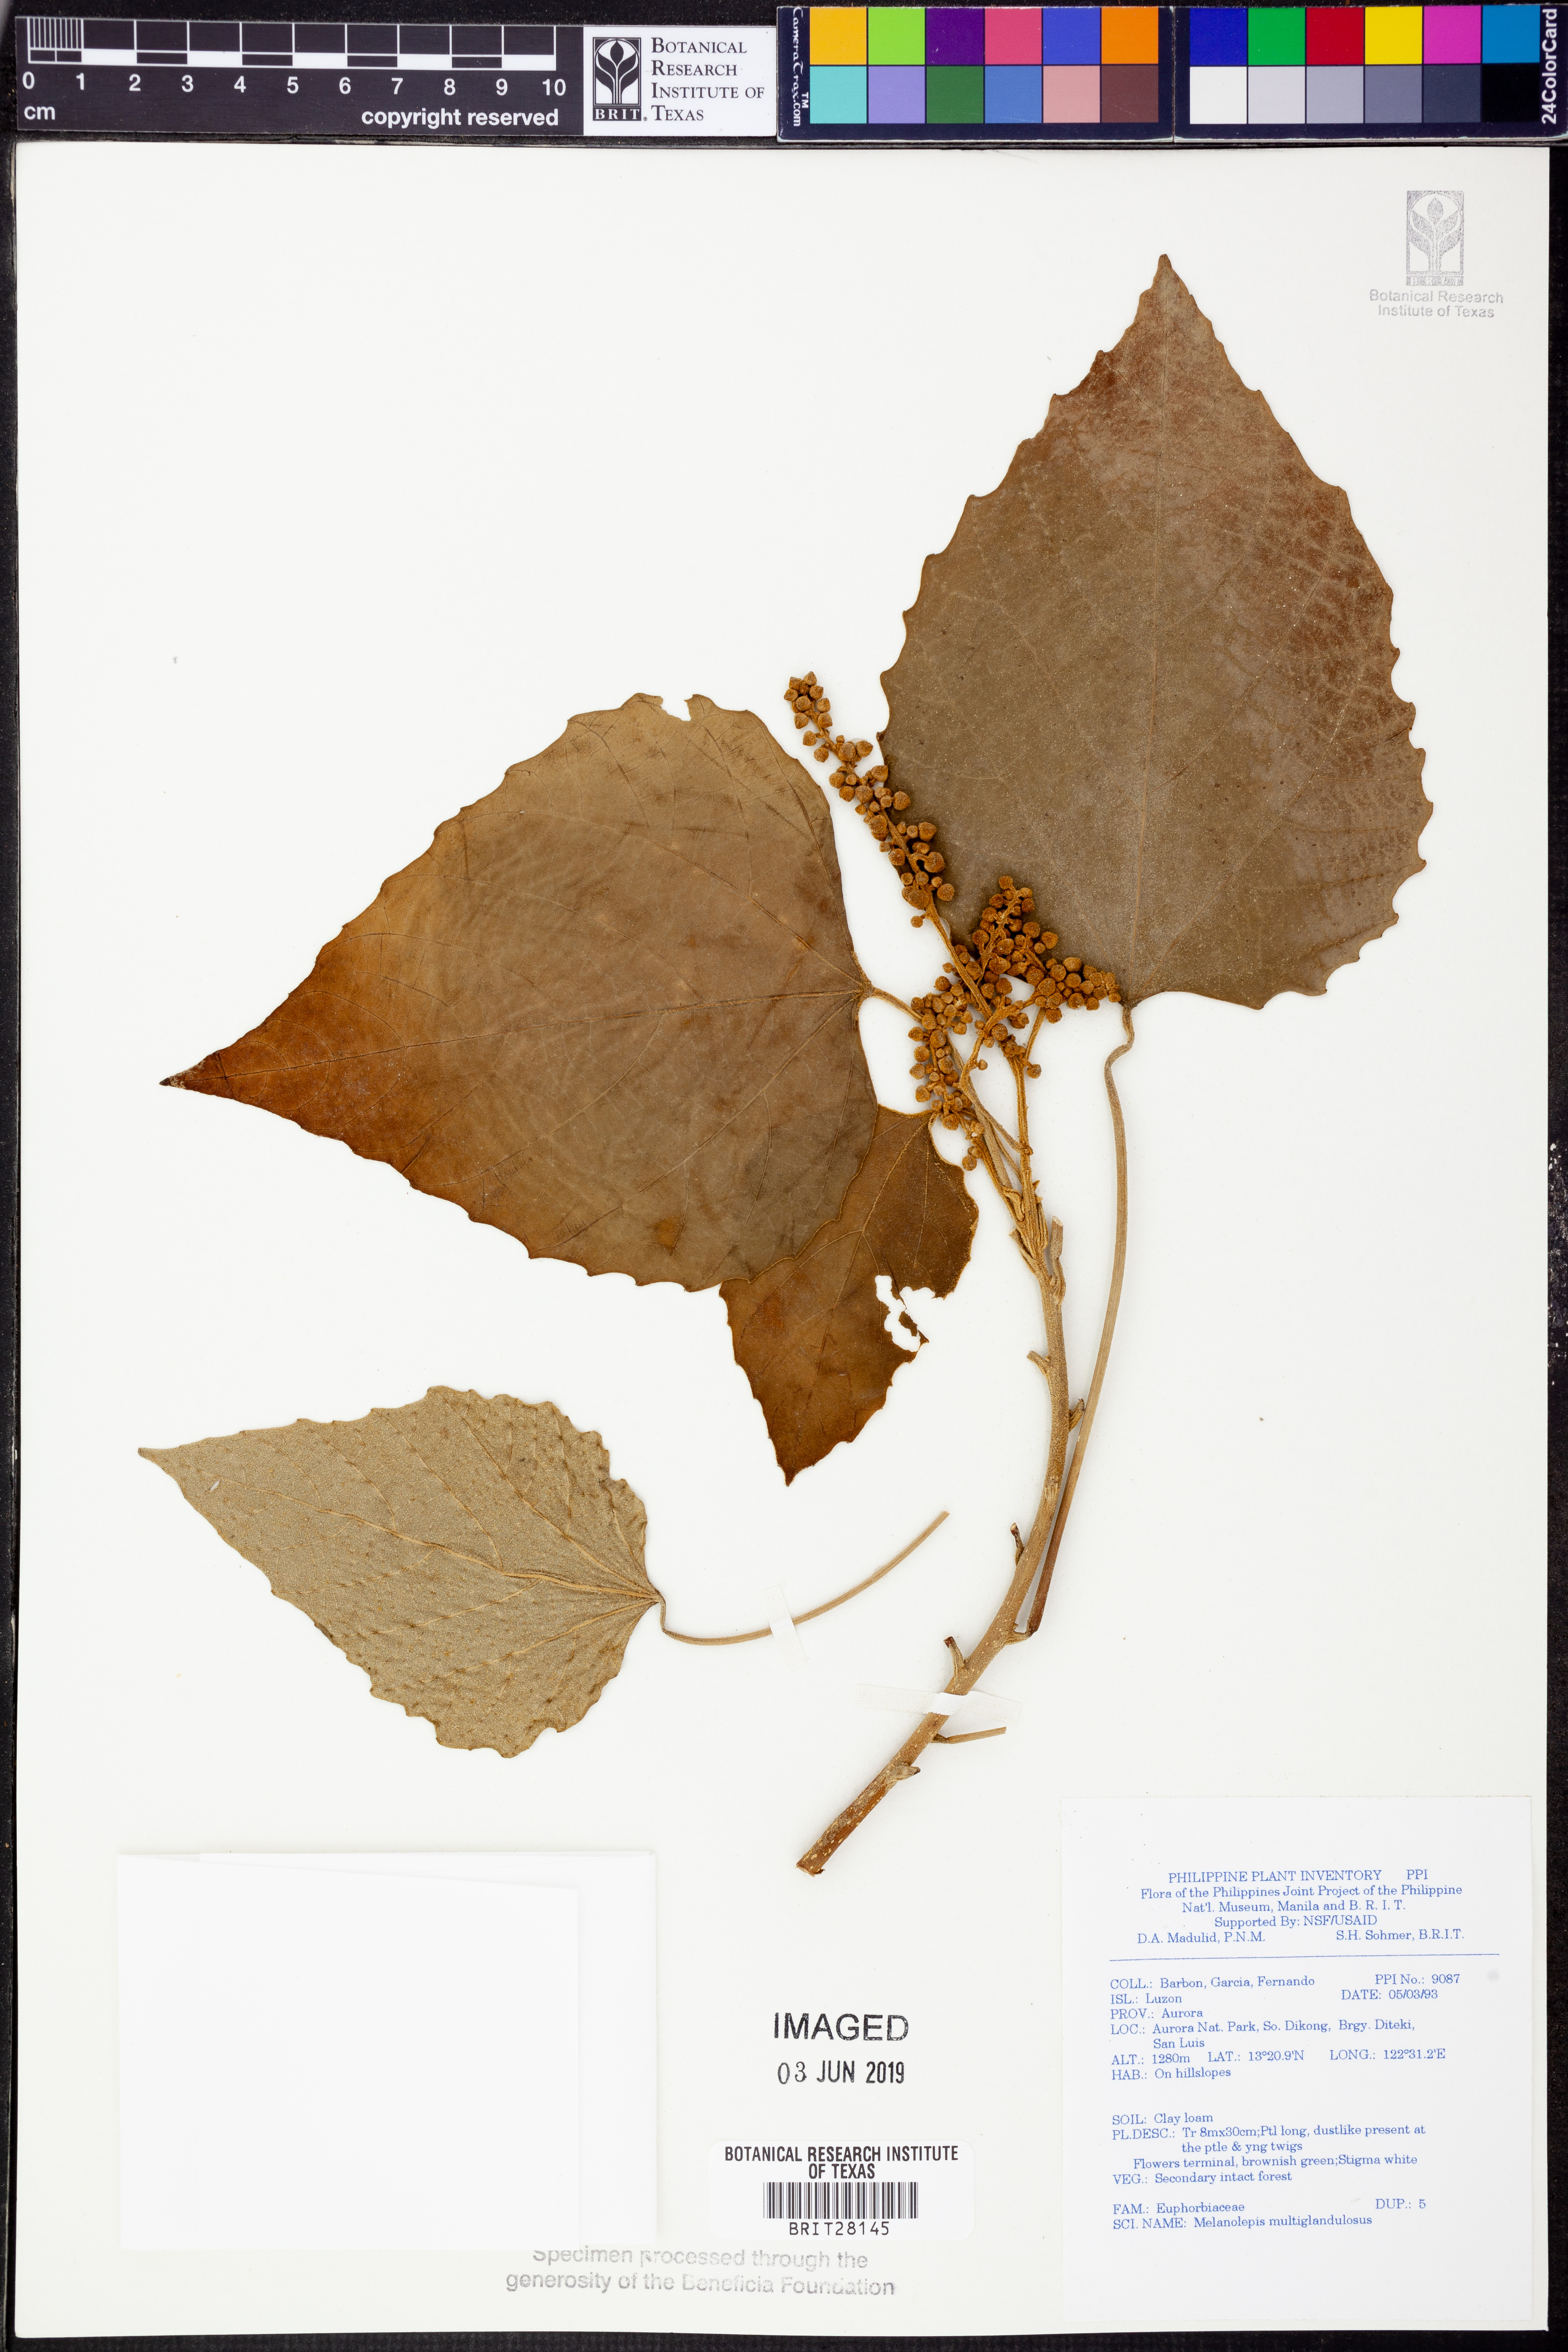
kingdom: Plantae
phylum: Tracheophyta
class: Magnoliopsida
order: Malpighiales
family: Euphorbiaceae
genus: Melanolepis
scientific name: Melanolepis multiglandulosa
